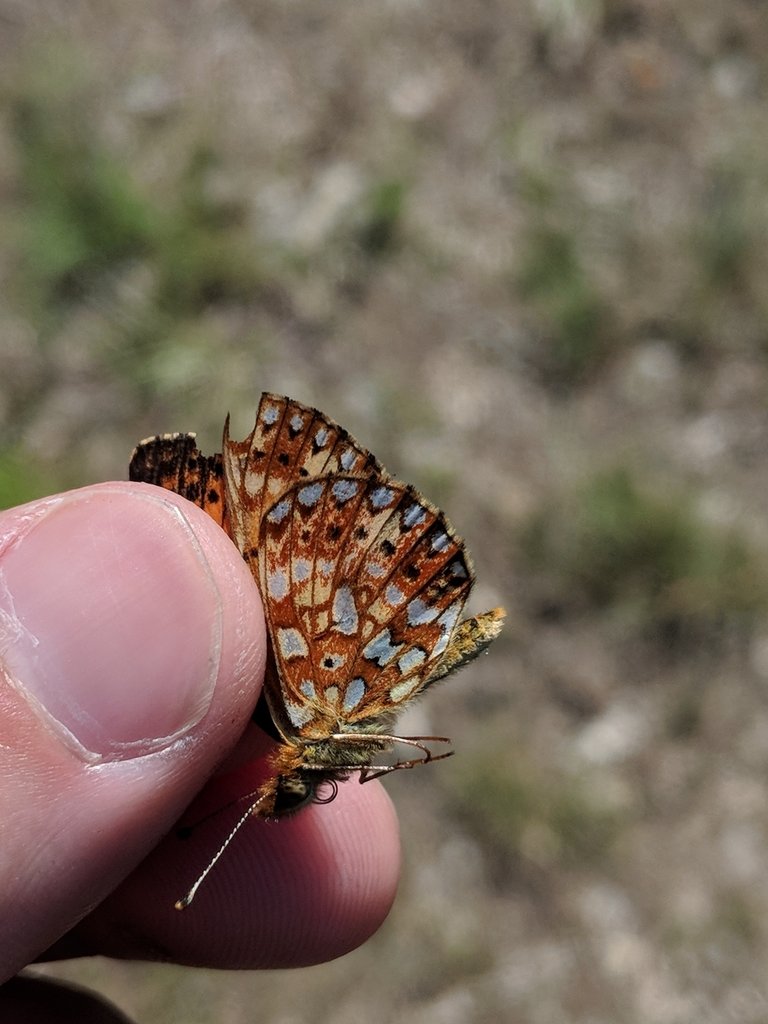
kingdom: Animalia
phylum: Arthropoda
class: Insecta
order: Lepidoptera
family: Nymphalidae
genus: Boloria
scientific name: Boloria selene
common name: Silver-bordered Fritillary
